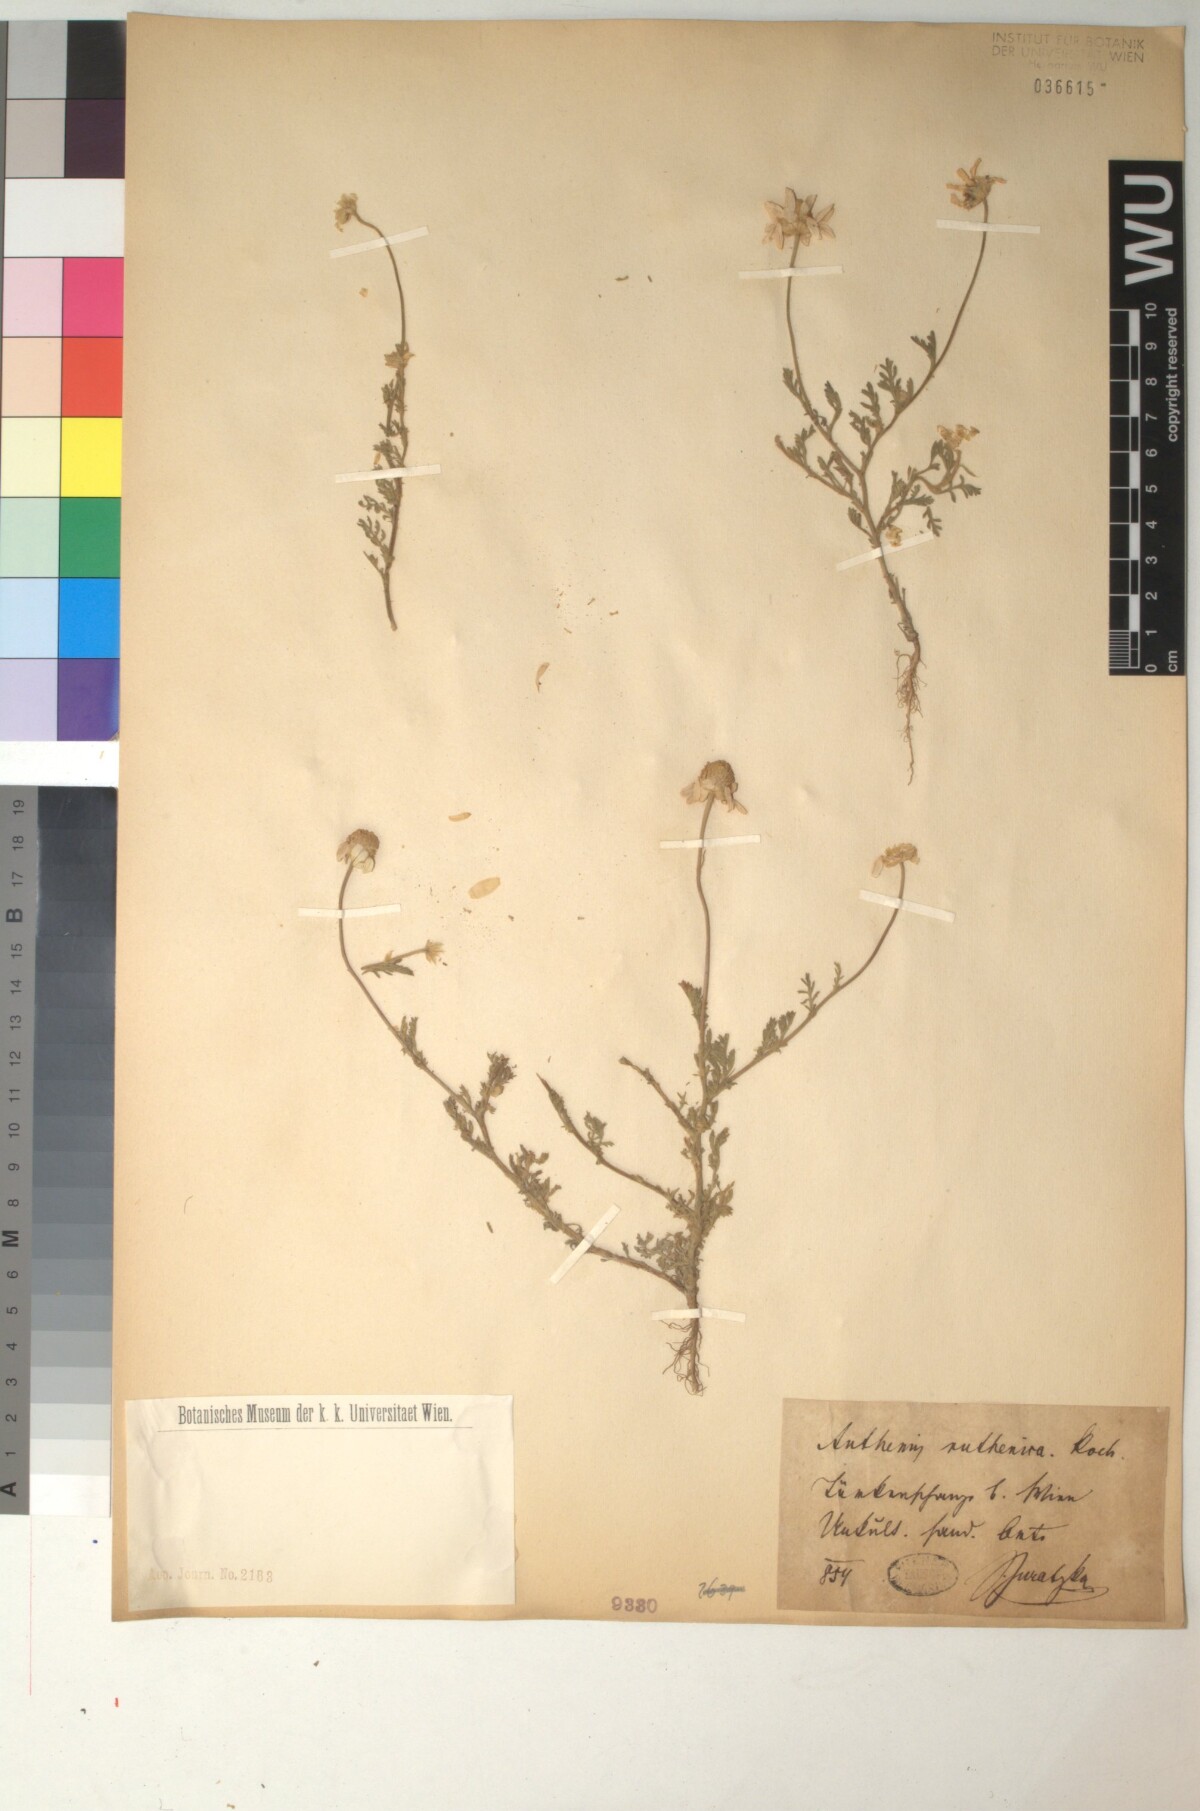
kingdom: Plantae
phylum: Tracheophyta
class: Magnoliopsida
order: Asterales
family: Asteraceae
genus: Anthemis
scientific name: Anthemis ruthenica
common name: Eastern chamomile
